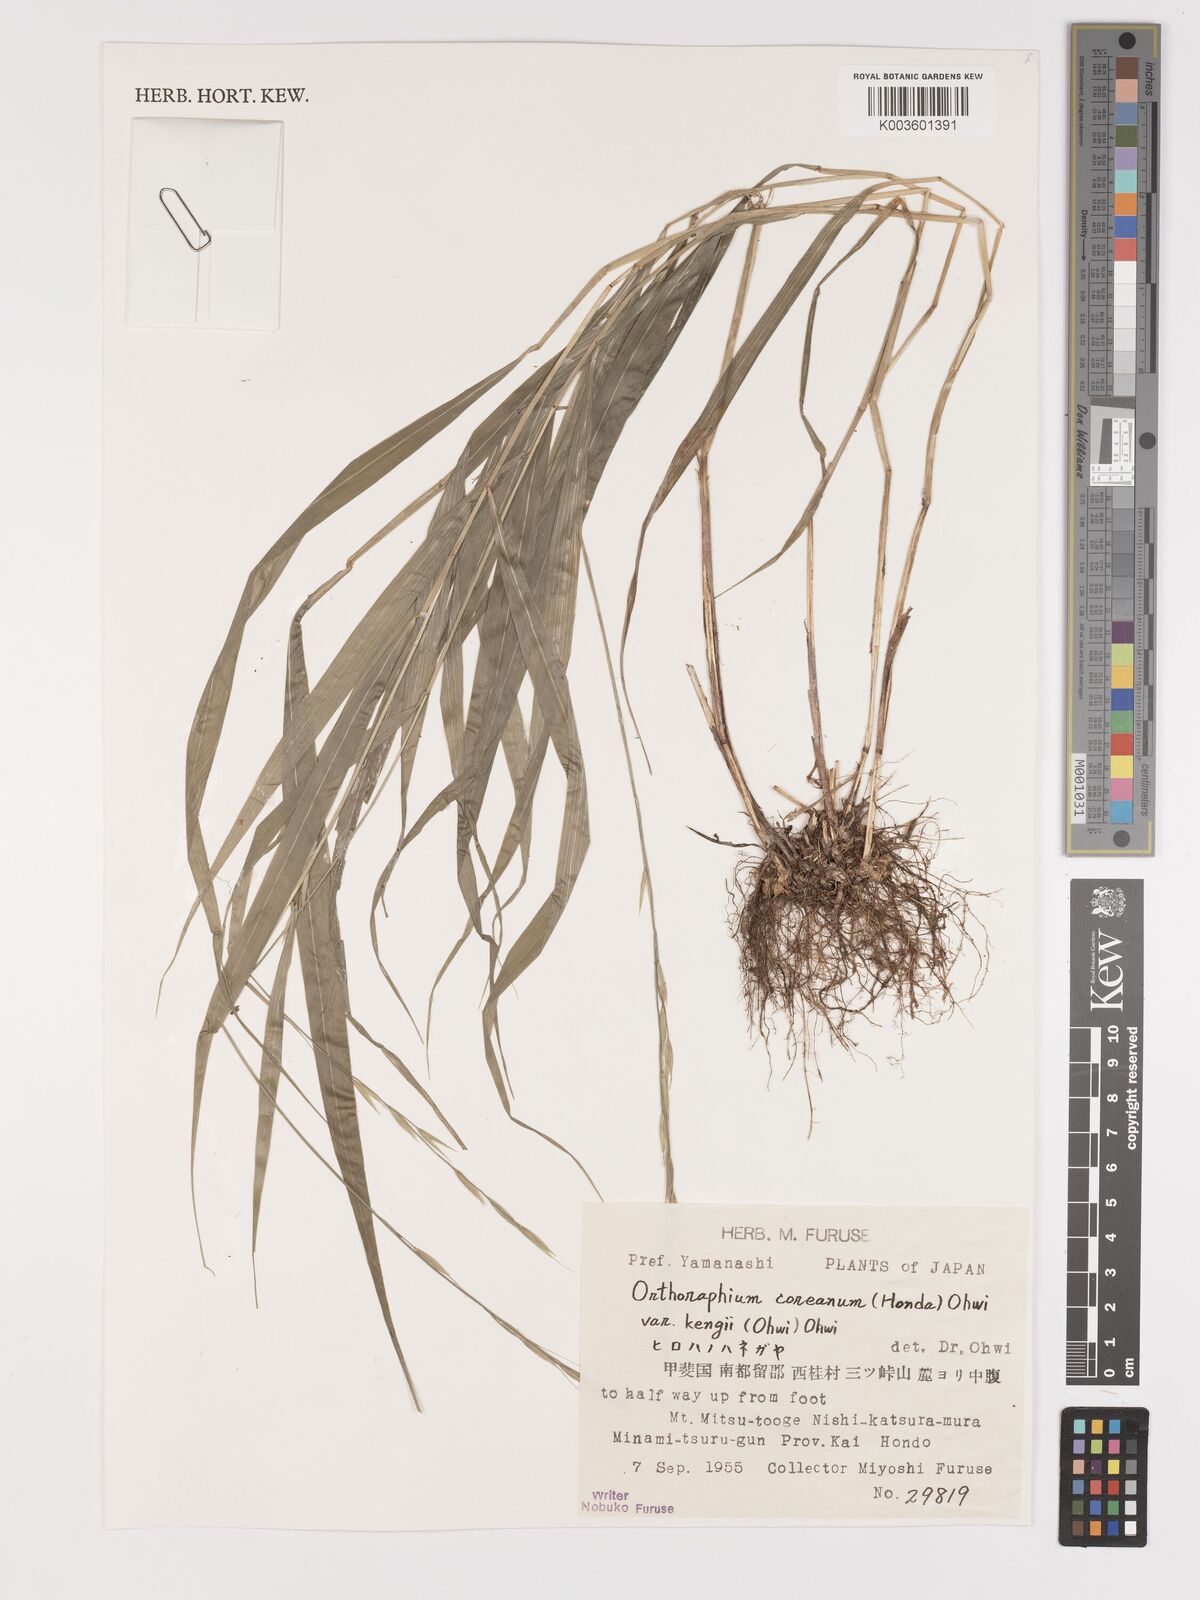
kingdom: Plantae
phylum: Tracheophyta
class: Liliopsida
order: Poales
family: Poaceae
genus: Patis
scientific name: Patis coreana
